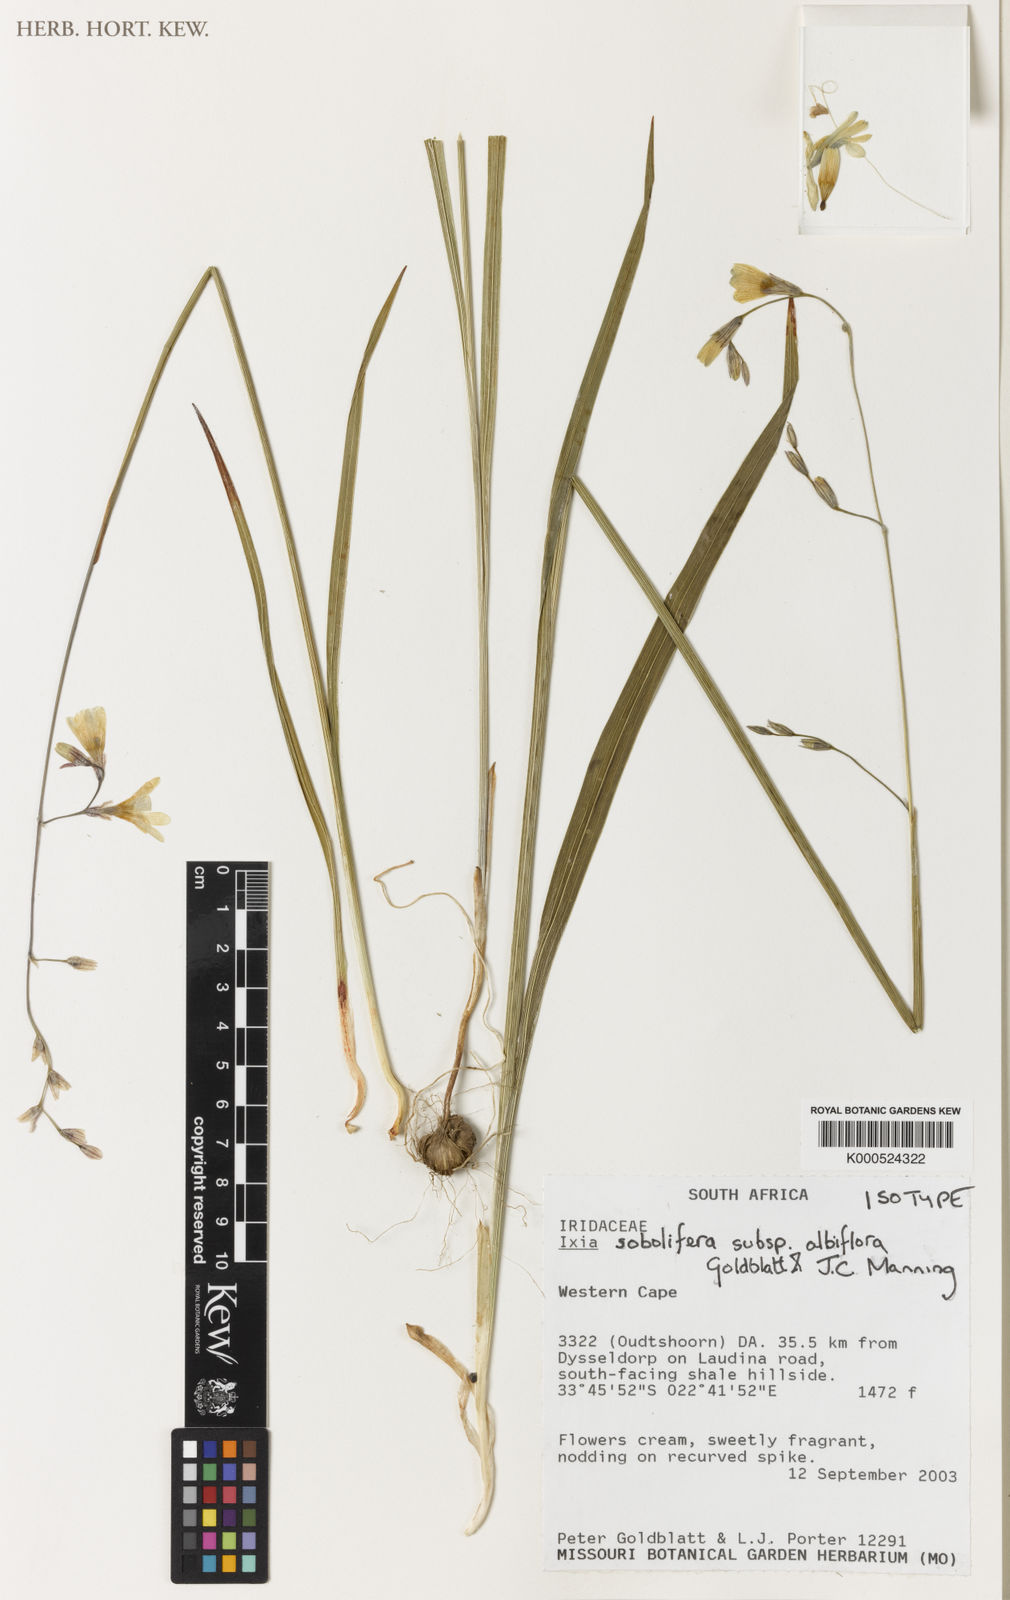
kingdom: Plantae
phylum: Tracheophyta
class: Liliopsida
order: Asparagales
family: Iridaceae
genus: Ixia
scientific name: Ixia sobolifera
